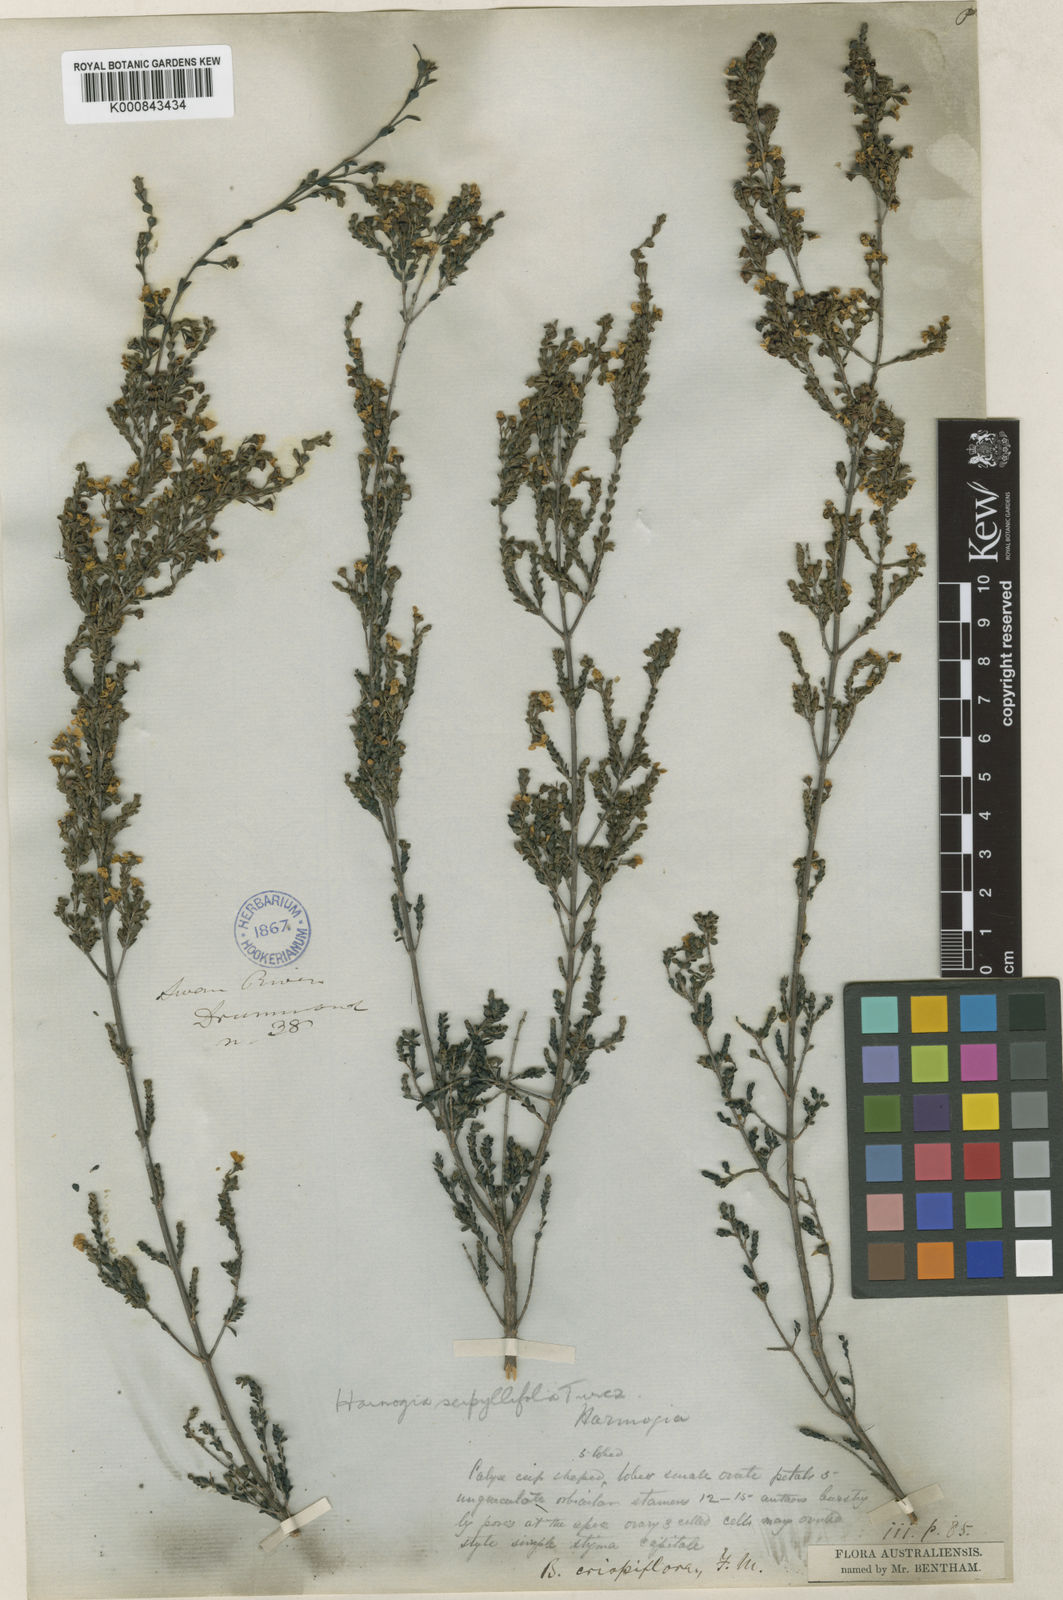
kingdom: Plantae
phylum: Tracheophyta
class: Magnoliopsida
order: Myrtales
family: Myrtaceae
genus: Ericomyrtus
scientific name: Ericomyrtus serpyllifolia
